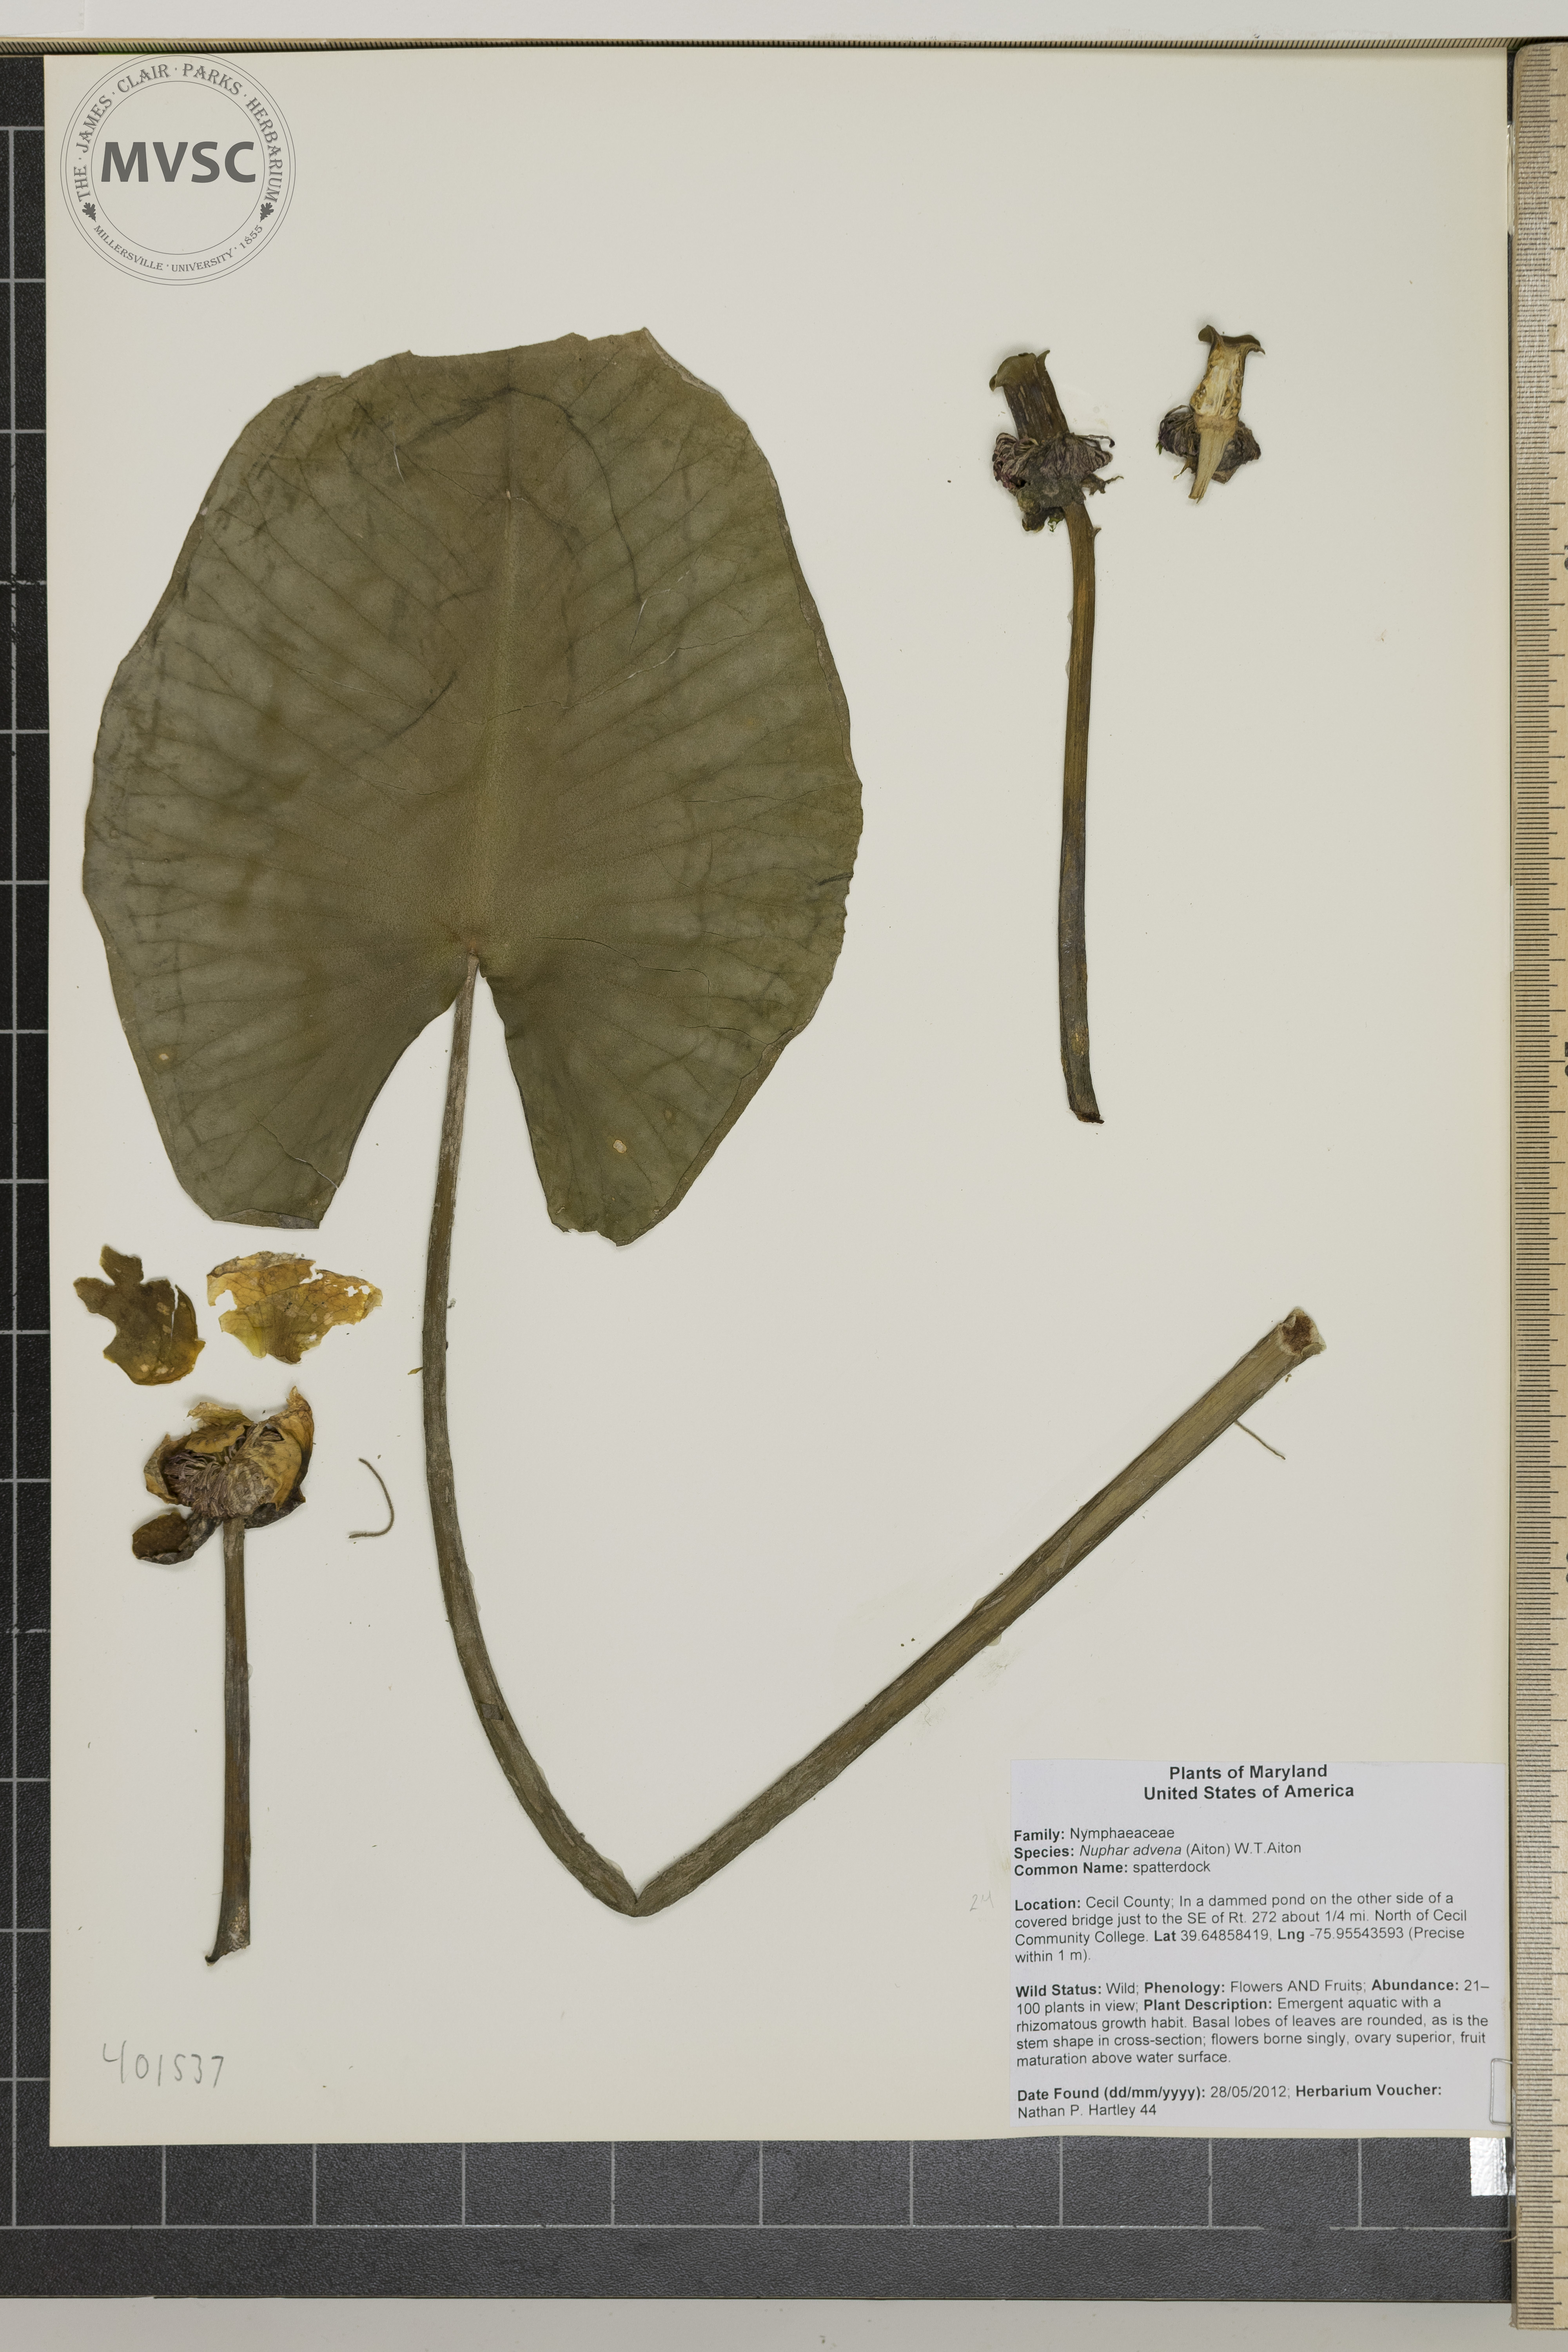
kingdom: Plantae
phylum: Tracheophyta
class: Magnoliopsida
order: Nymphaeales
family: Nymphaeaceae
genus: Nuphar
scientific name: Nuphar advena
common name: spatterdock
